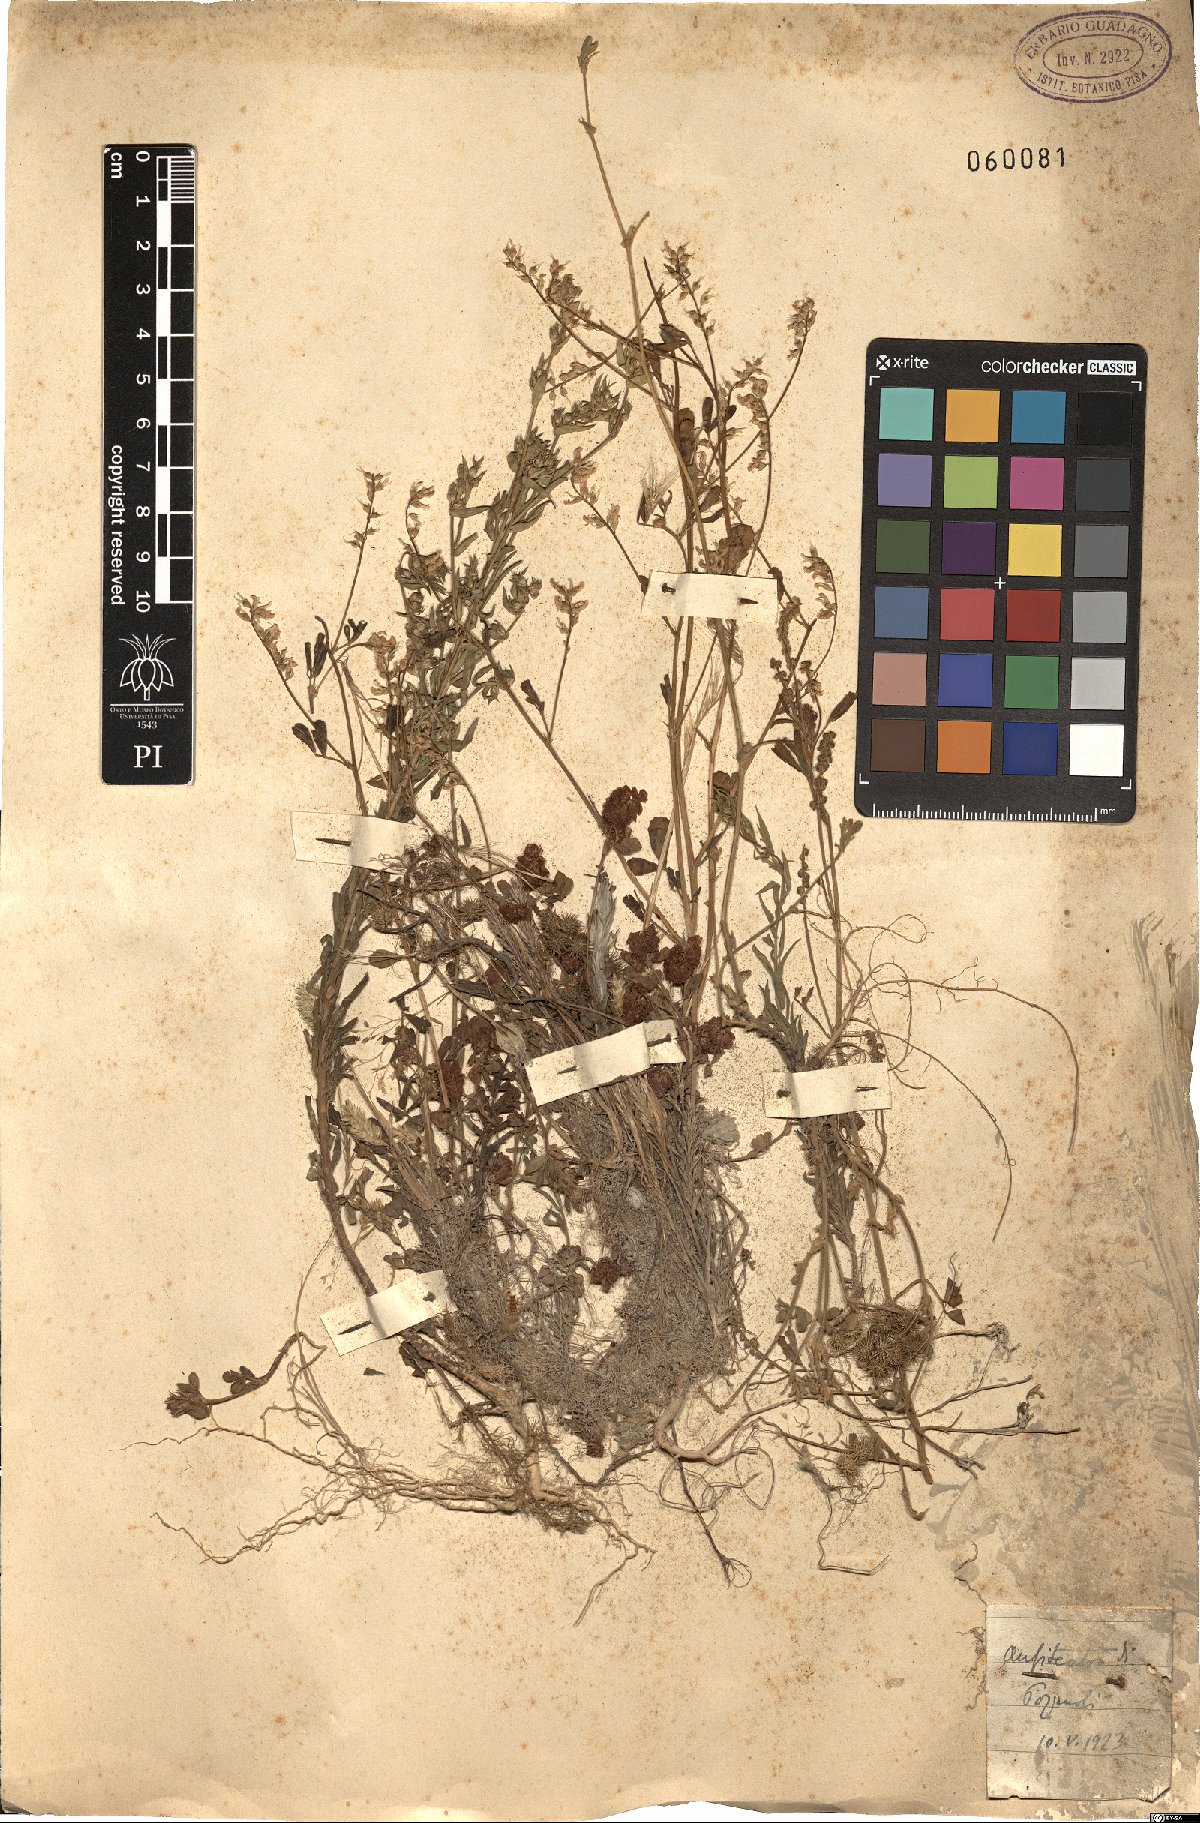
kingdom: Plantae
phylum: Tracheophyta
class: Magnoliopsida
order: Fabales
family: Fabaceae
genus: Trifolium
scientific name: Trifolium campestre
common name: Field clover
